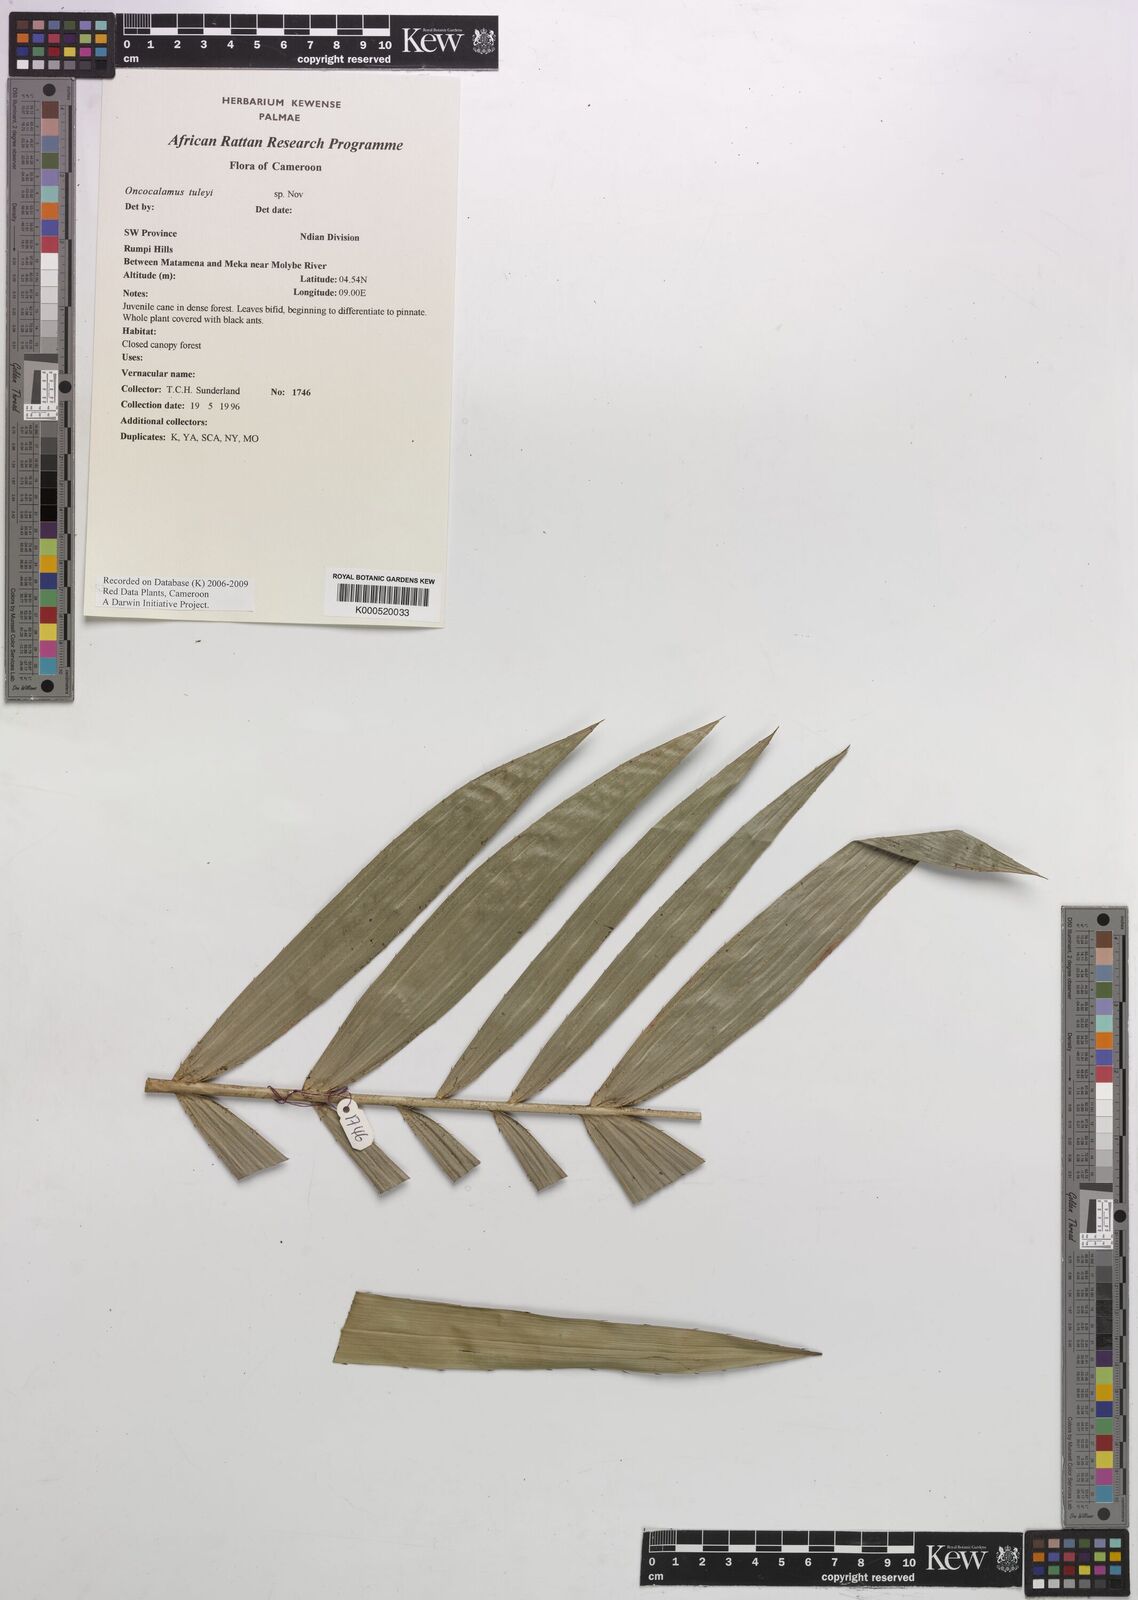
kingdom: Plantae
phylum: Tracheophyta
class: Liliopsida
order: Arecales
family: Arecaceae
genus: Oncocalamus
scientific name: Oncocalamus tuleyi
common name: Rattan
